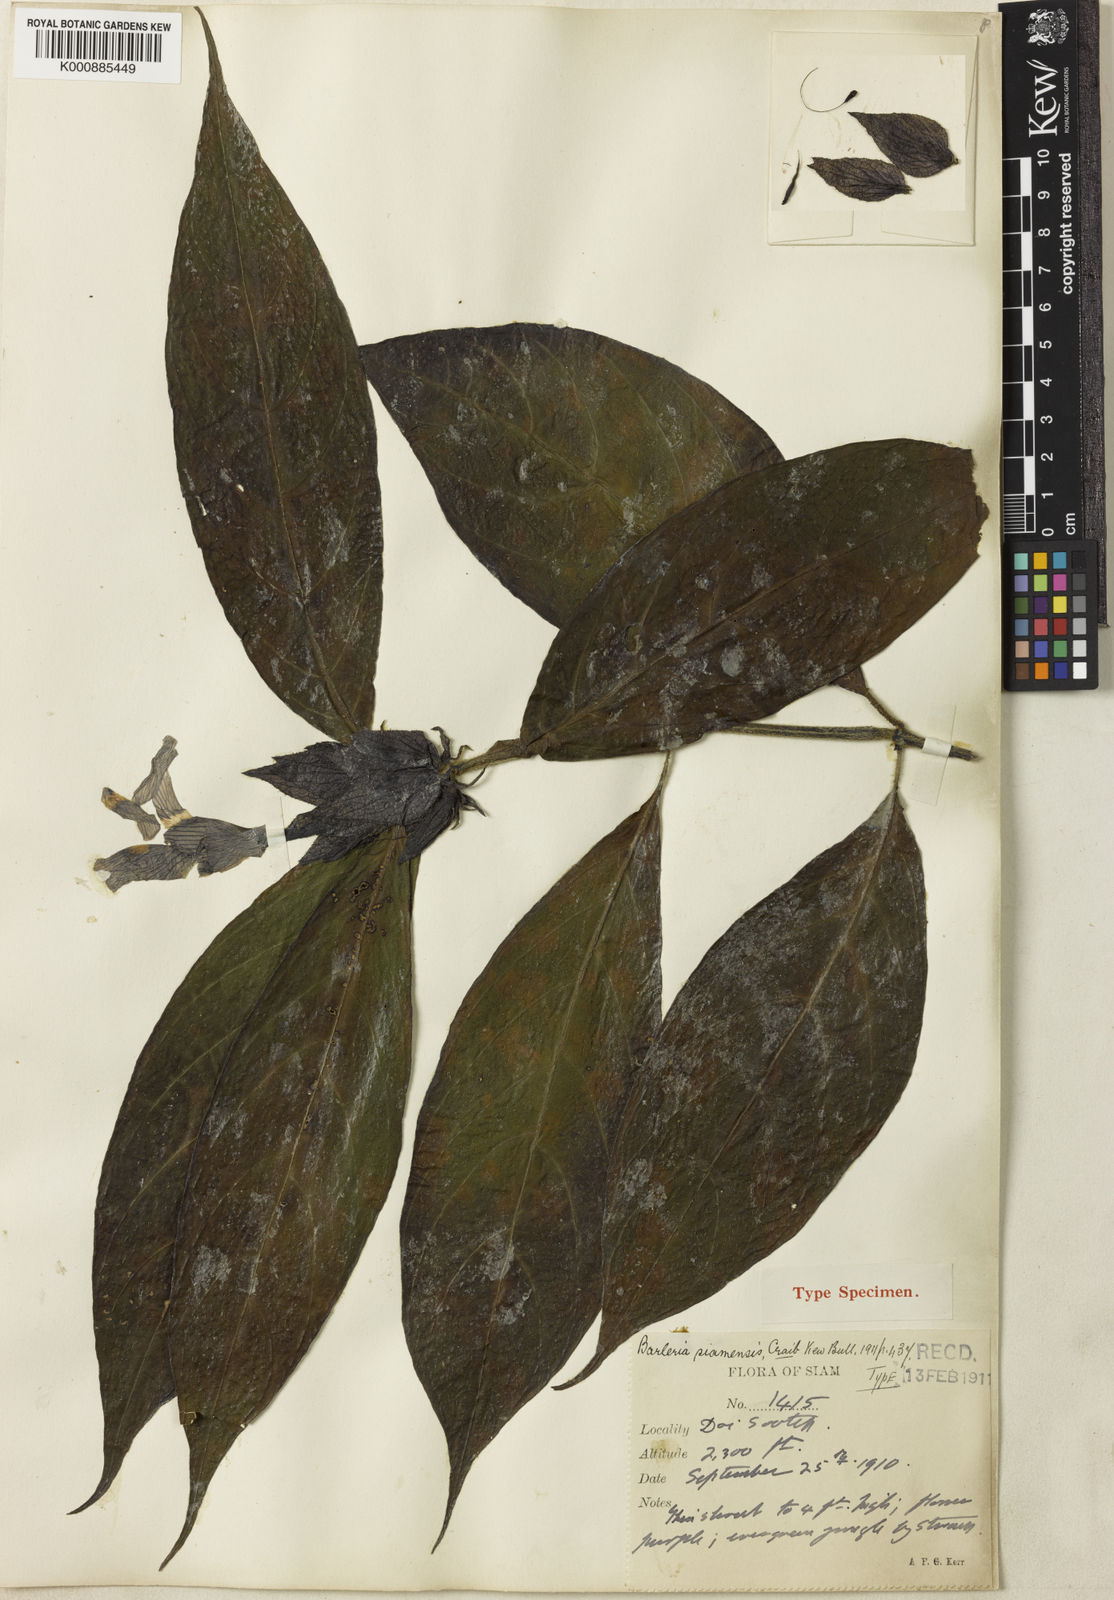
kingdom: Plantae
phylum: Tracheophyta
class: Magnoliopsida
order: Lamiales
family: Acanthaceae
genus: Barleria
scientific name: Barleria siamensis
